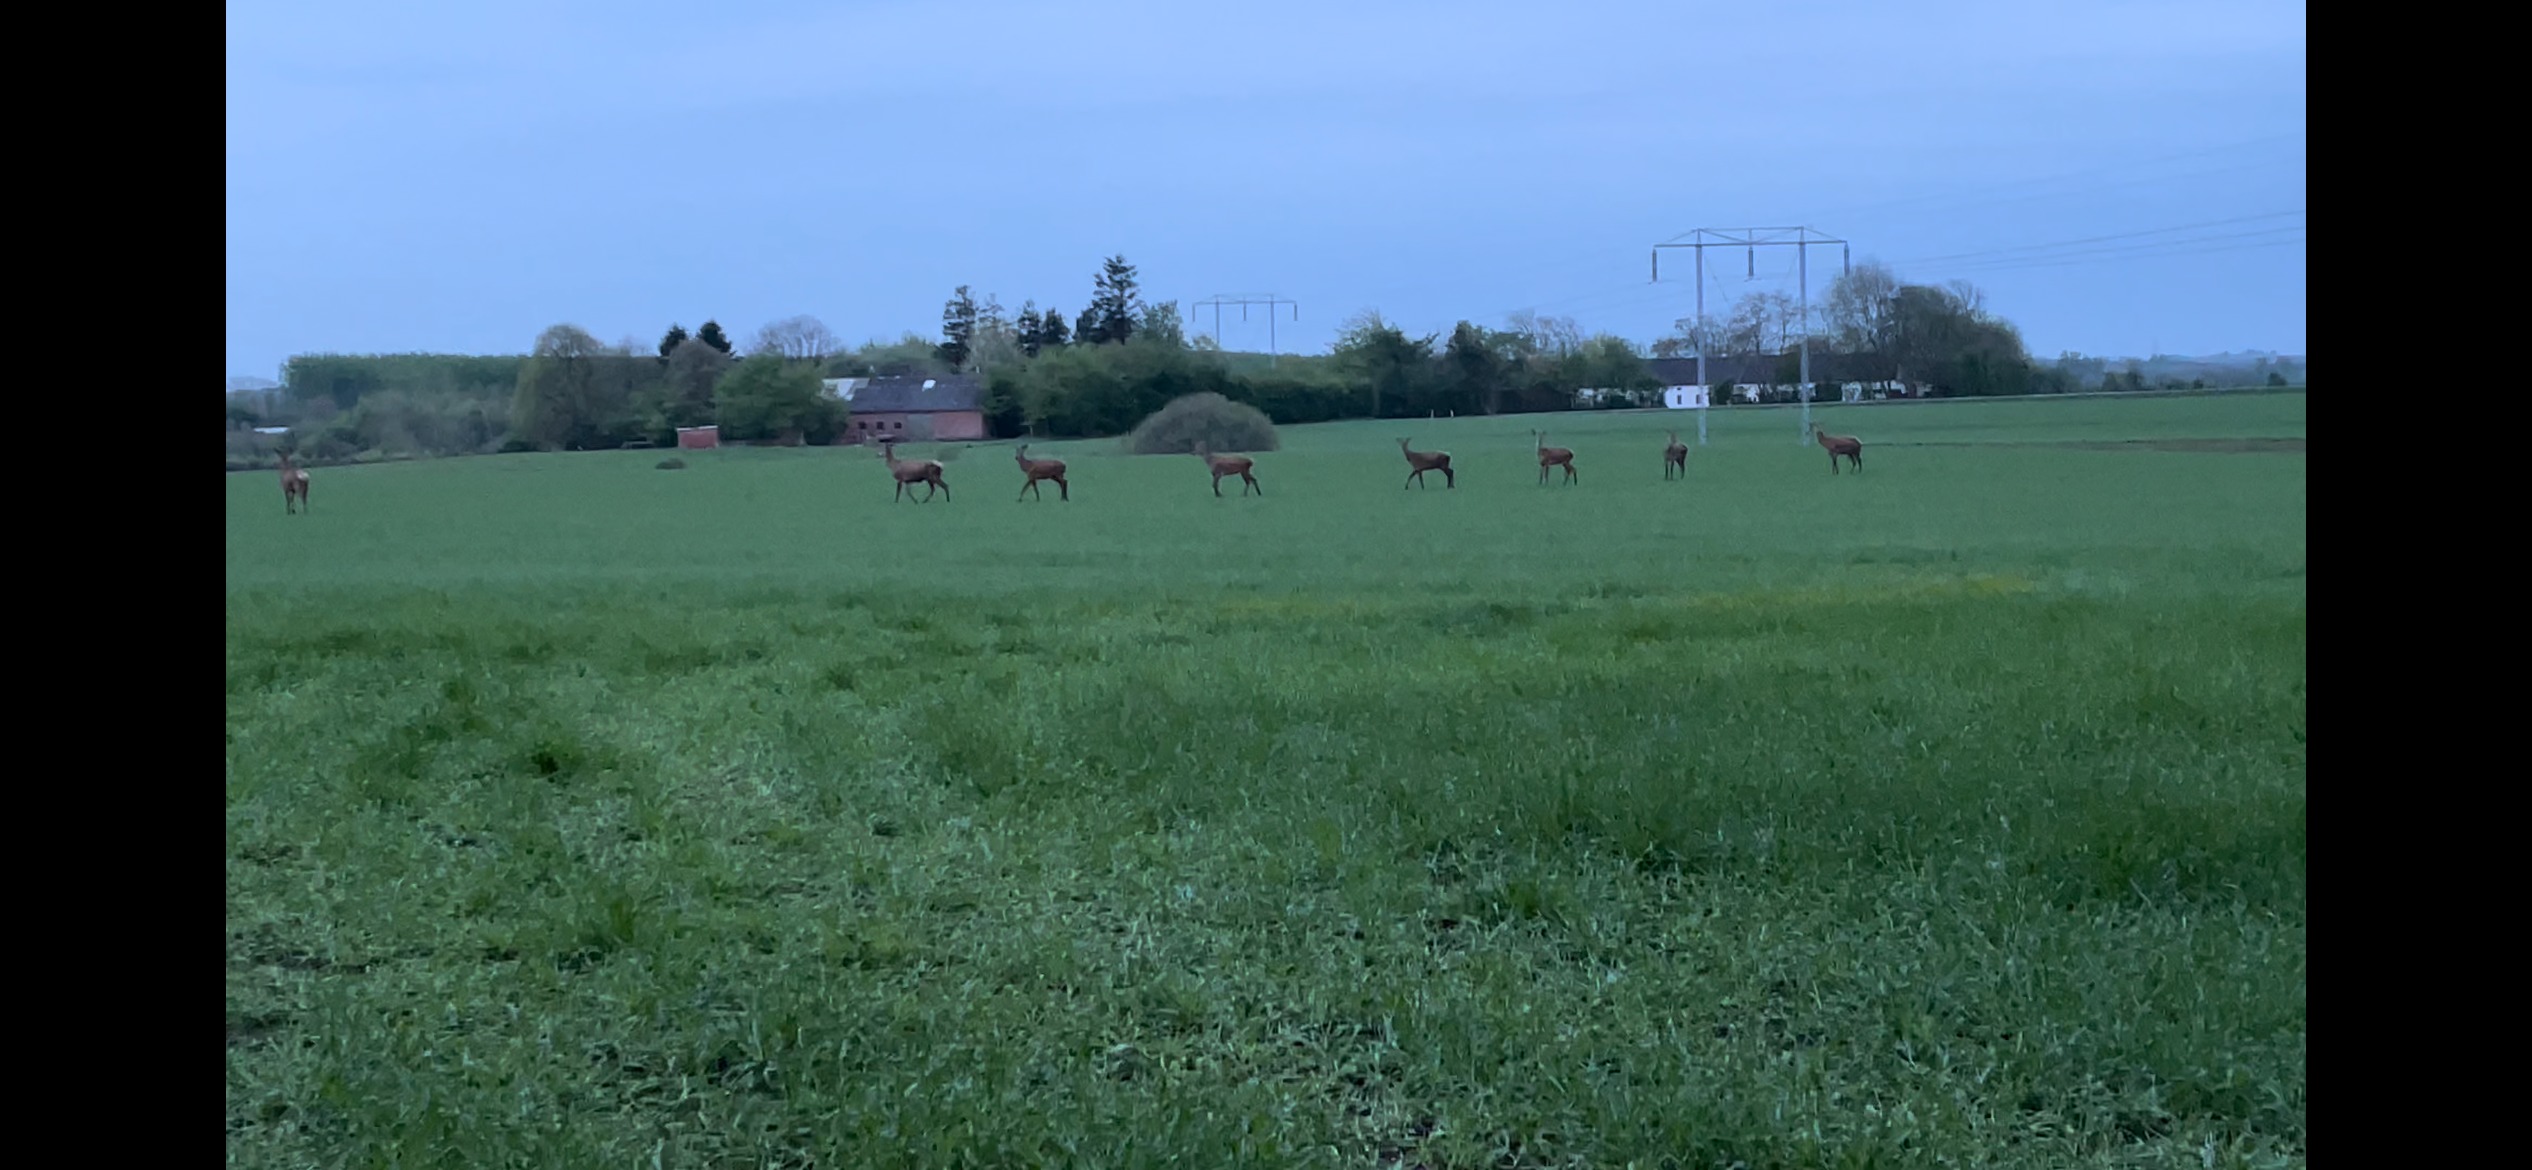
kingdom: Animalia
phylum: Chordata
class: Mammalia
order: Artiodactyla
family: Cervidae
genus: Cervus
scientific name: Cervus elaphus
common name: Krondyr
